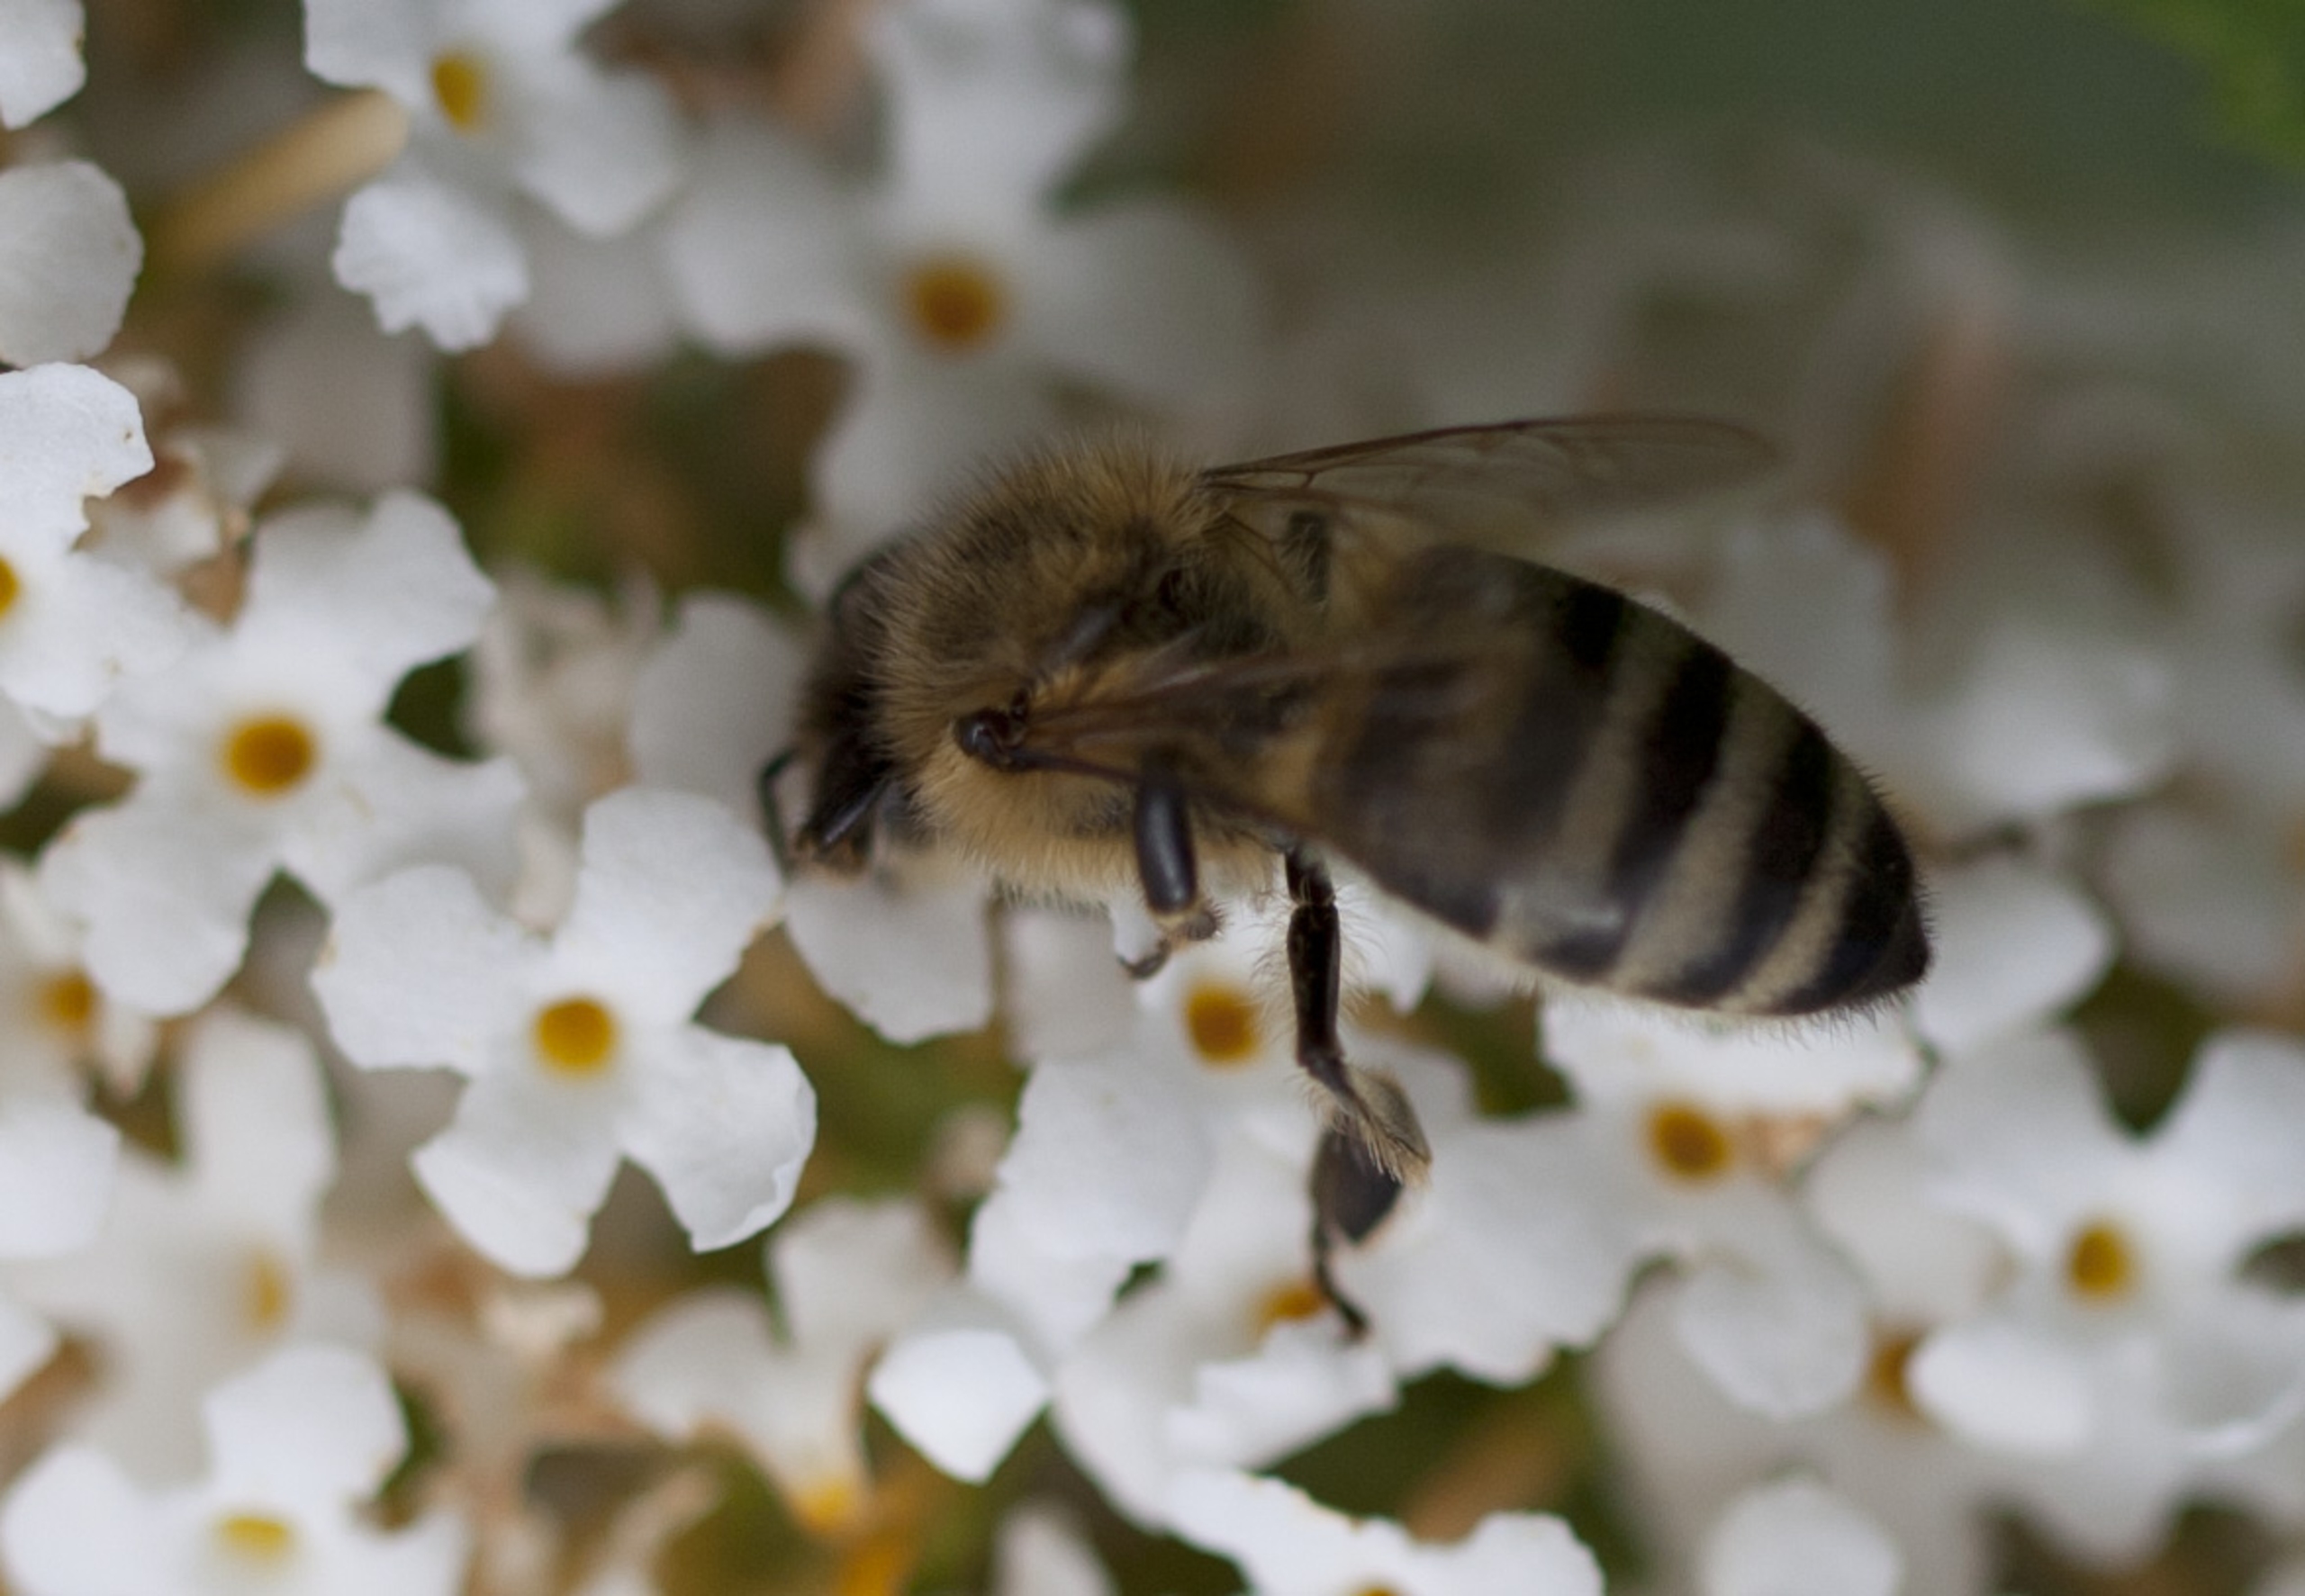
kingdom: Animalia
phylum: Arthropoda
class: Insecta
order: Hymenoptera
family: Apidae
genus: Apis
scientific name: Apis mellifera
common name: Honningbi
